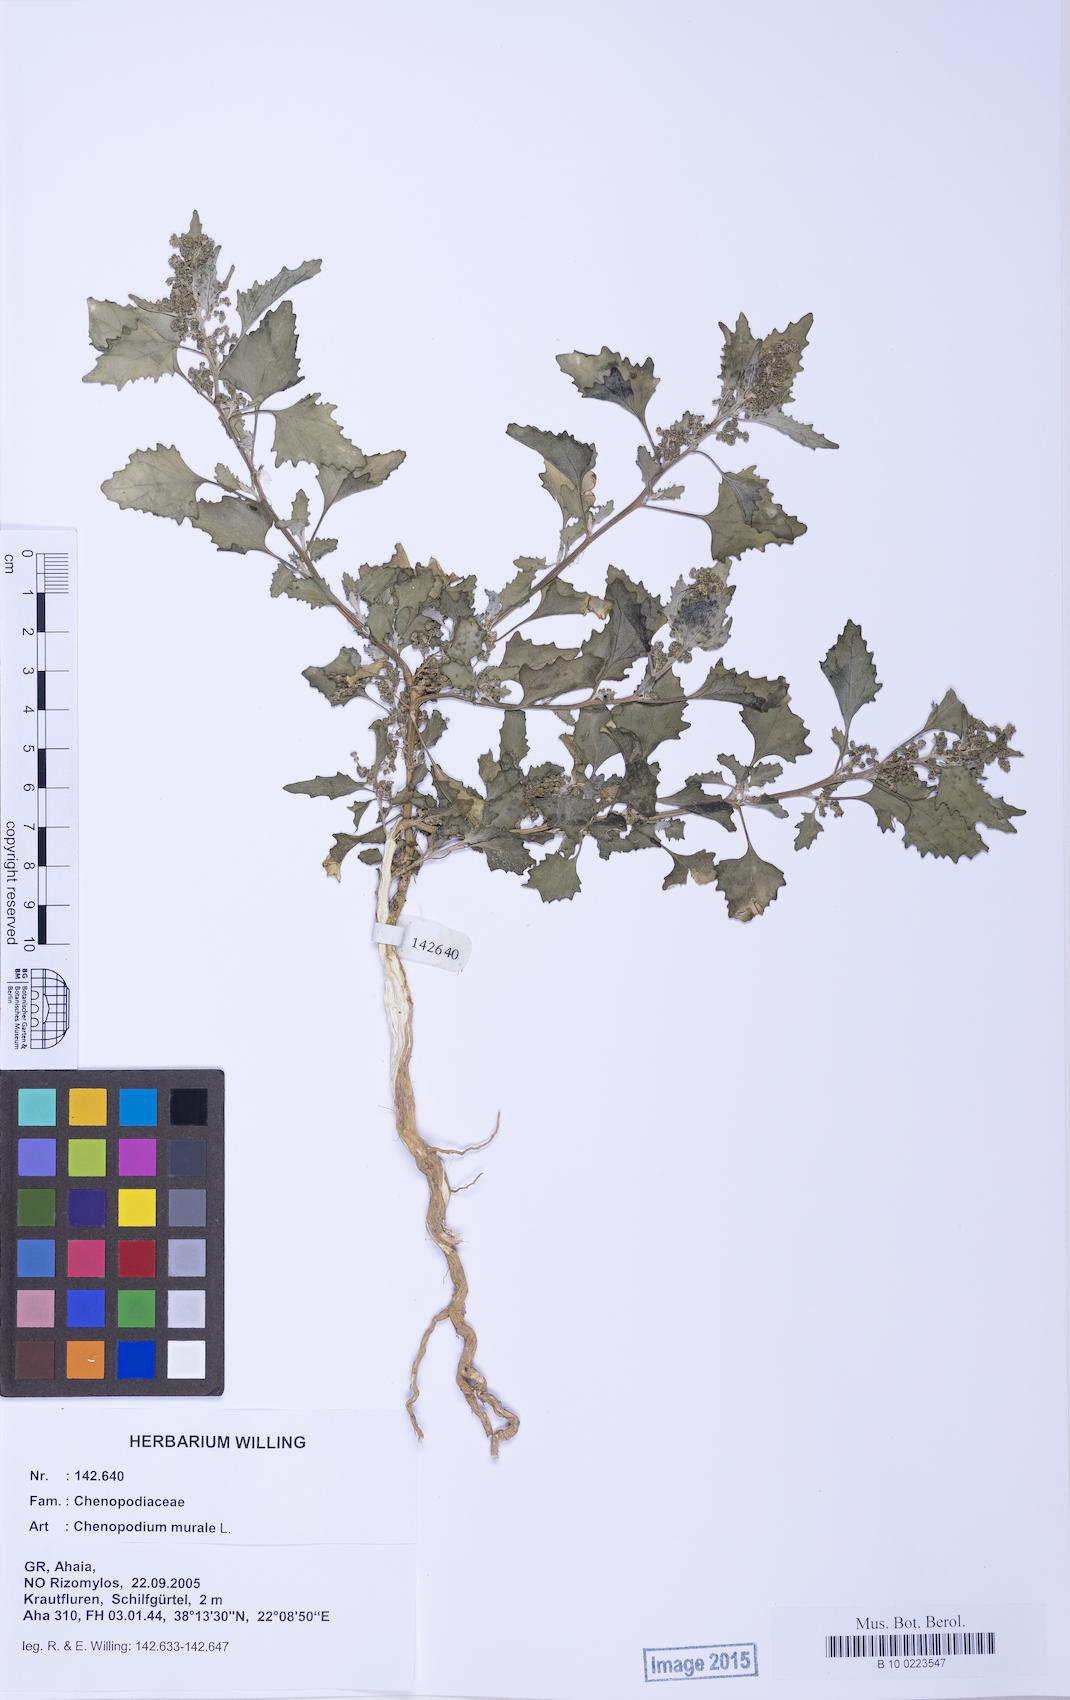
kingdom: Plantae
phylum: Tracheophyta
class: Magnoliopsida
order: Caryophyllales
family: Amaranthaceae
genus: Chenopodiastrum
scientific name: Chenopodiastrum murale
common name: Sowbane
